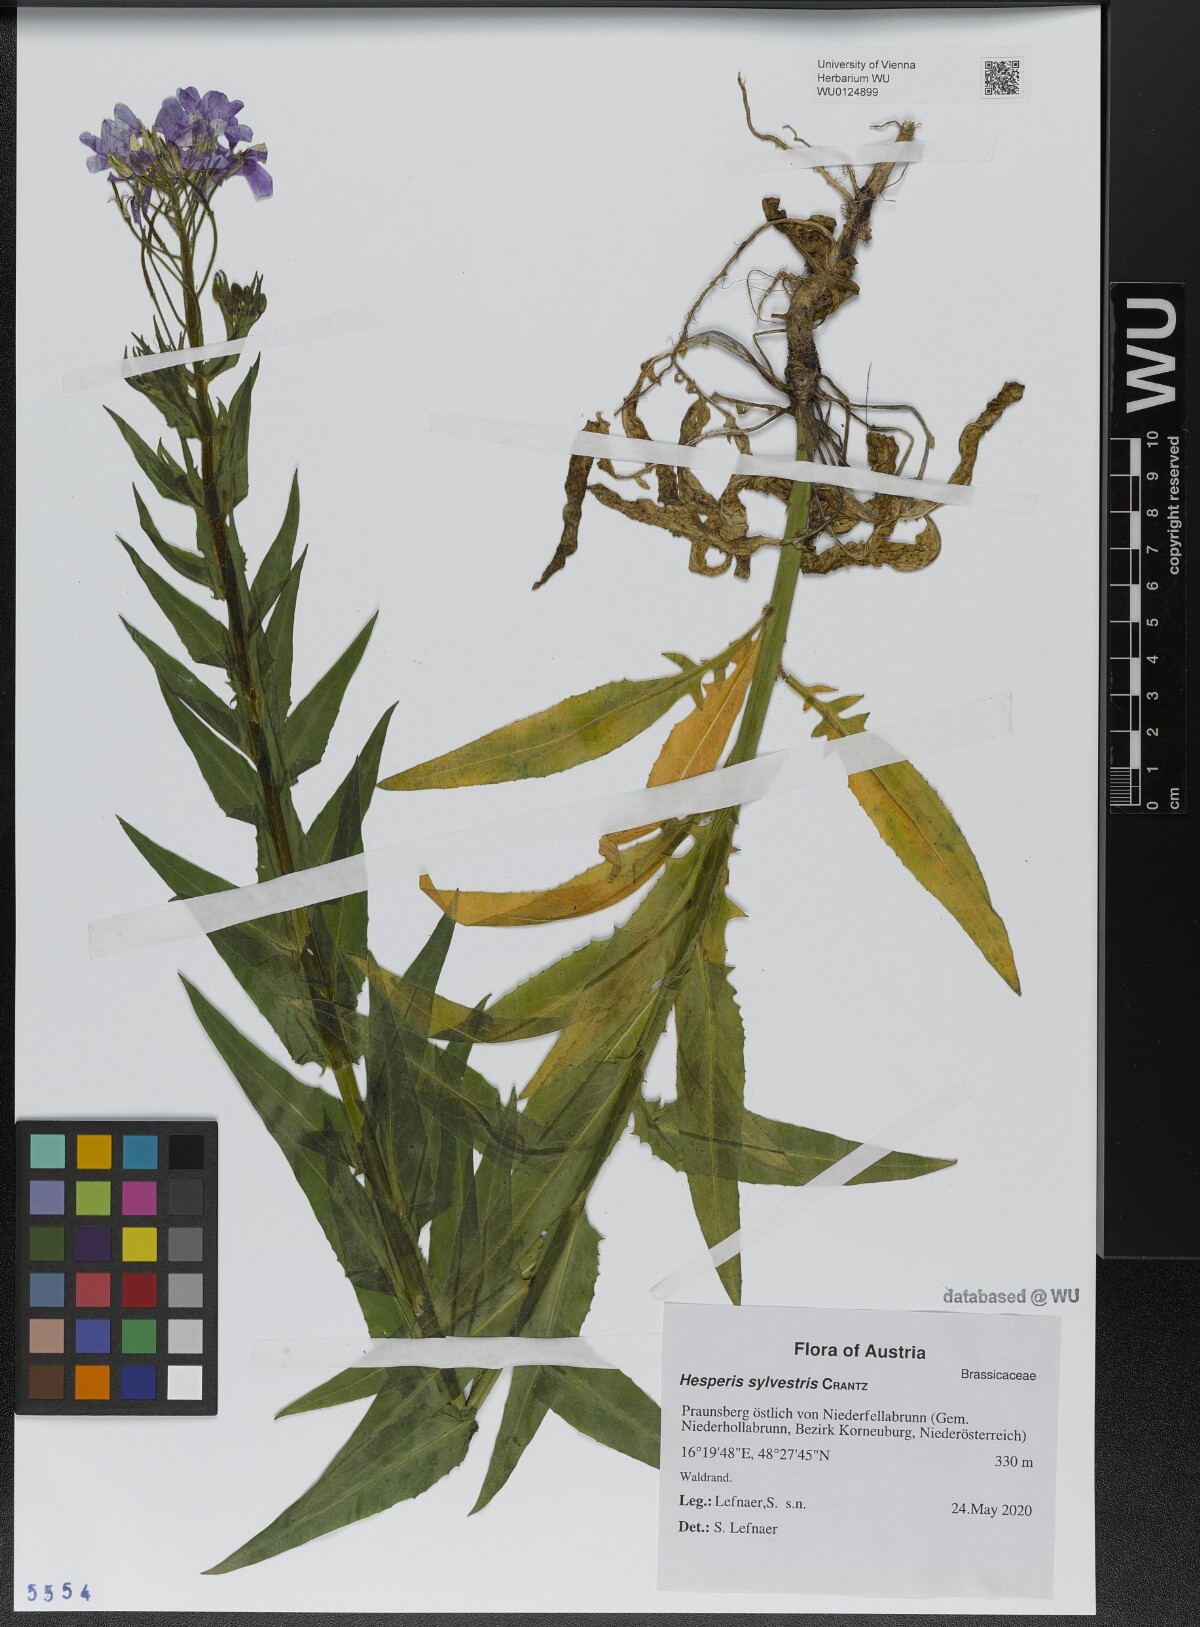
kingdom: Plantae
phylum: Tracheophyta
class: Magnoliopsida
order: Brassicales
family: Brassicaceae
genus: Hesperis
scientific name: Hesperis sylvestris
